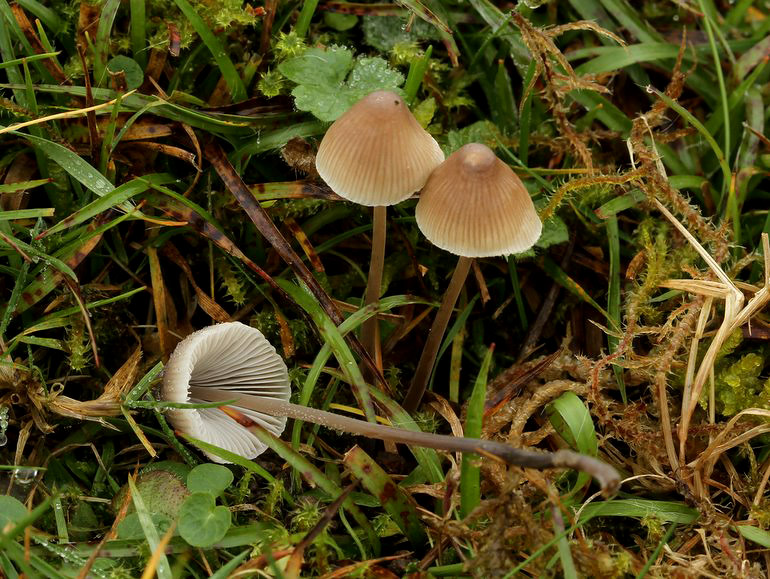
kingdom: Fungi
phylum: Basidiomycota
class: Agaricomycetes
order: Agaricales
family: Mycenaceae
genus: Mycena
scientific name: Mycena filopes
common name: jod-huesvamp
